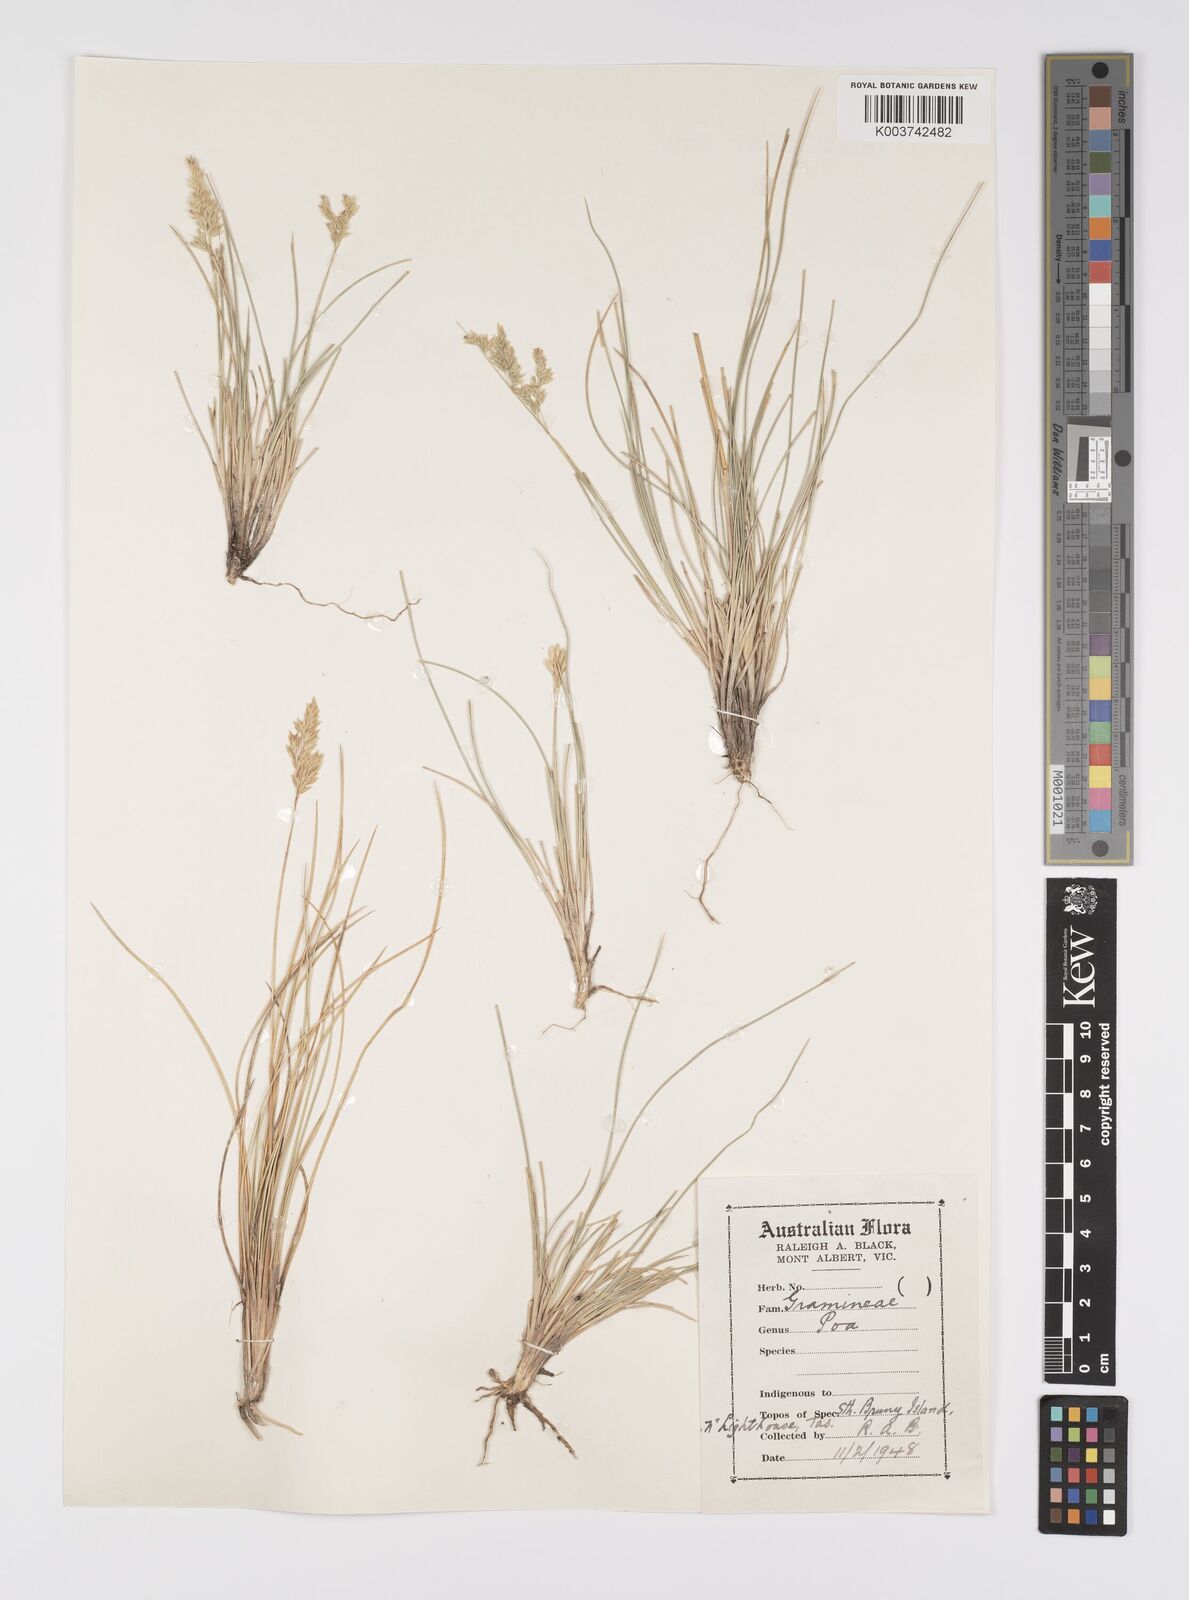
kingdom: Plantae
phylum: Tracheophyta
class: Liliopsida
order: Poales
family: Poaceae
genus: Poa
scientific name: Poa
